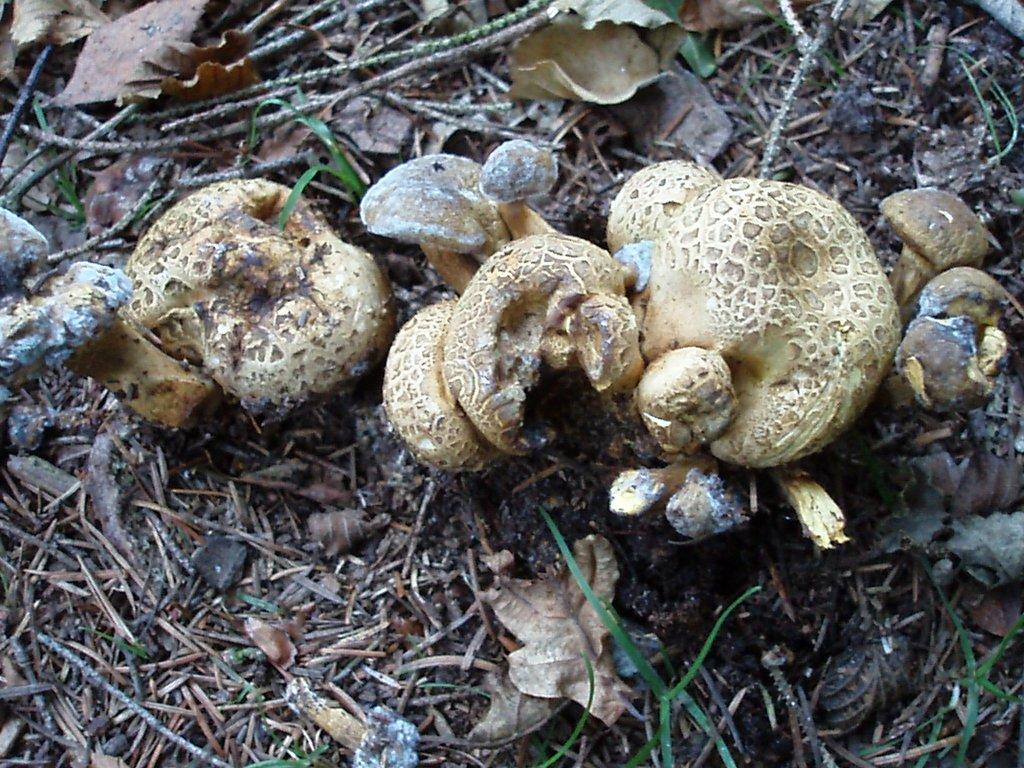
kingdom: Fungi
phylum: Basidiomycota
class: Agaricomycetes
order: Boletales
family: Boletaceae
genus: Pseudoboletus
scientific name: Pseudoboletus parasiticus
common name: snyltende rørhat
